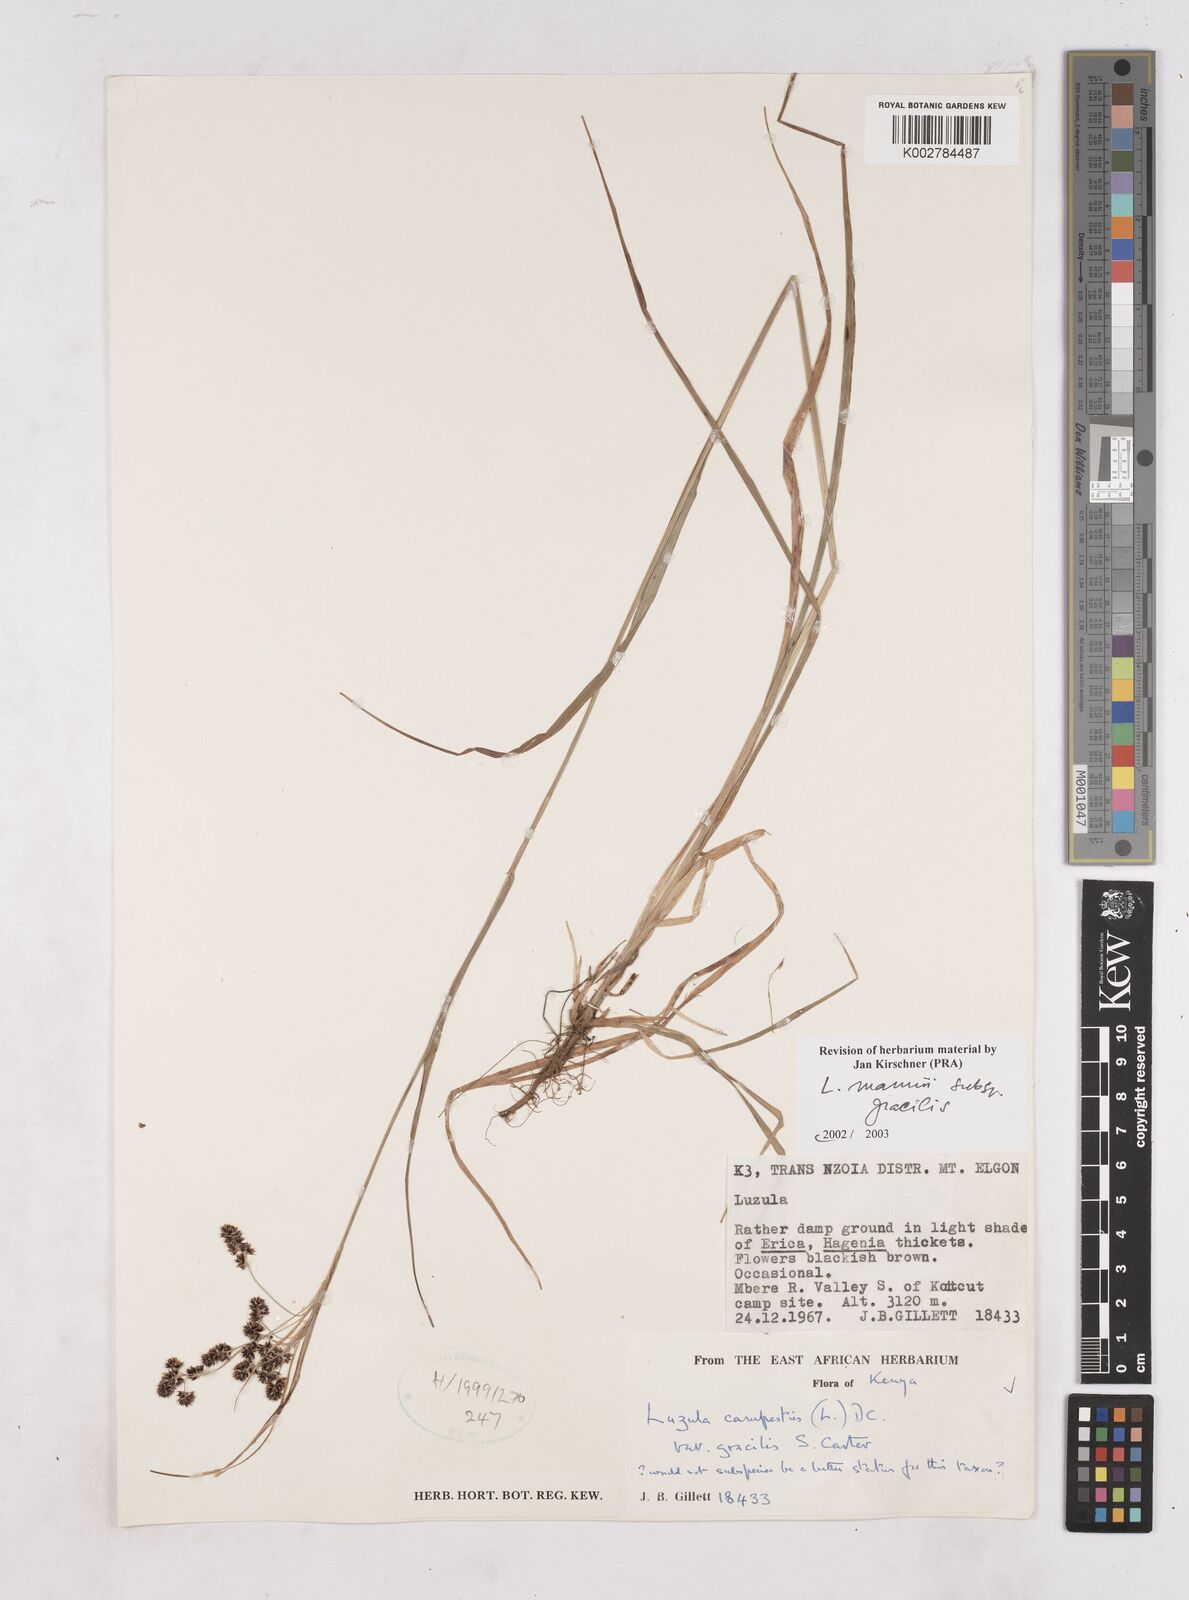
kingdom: Plantae
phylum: Tracheophyta
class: Liliopsida
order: Poales
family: Juncaceae
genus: Luzula
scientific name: Luzula
